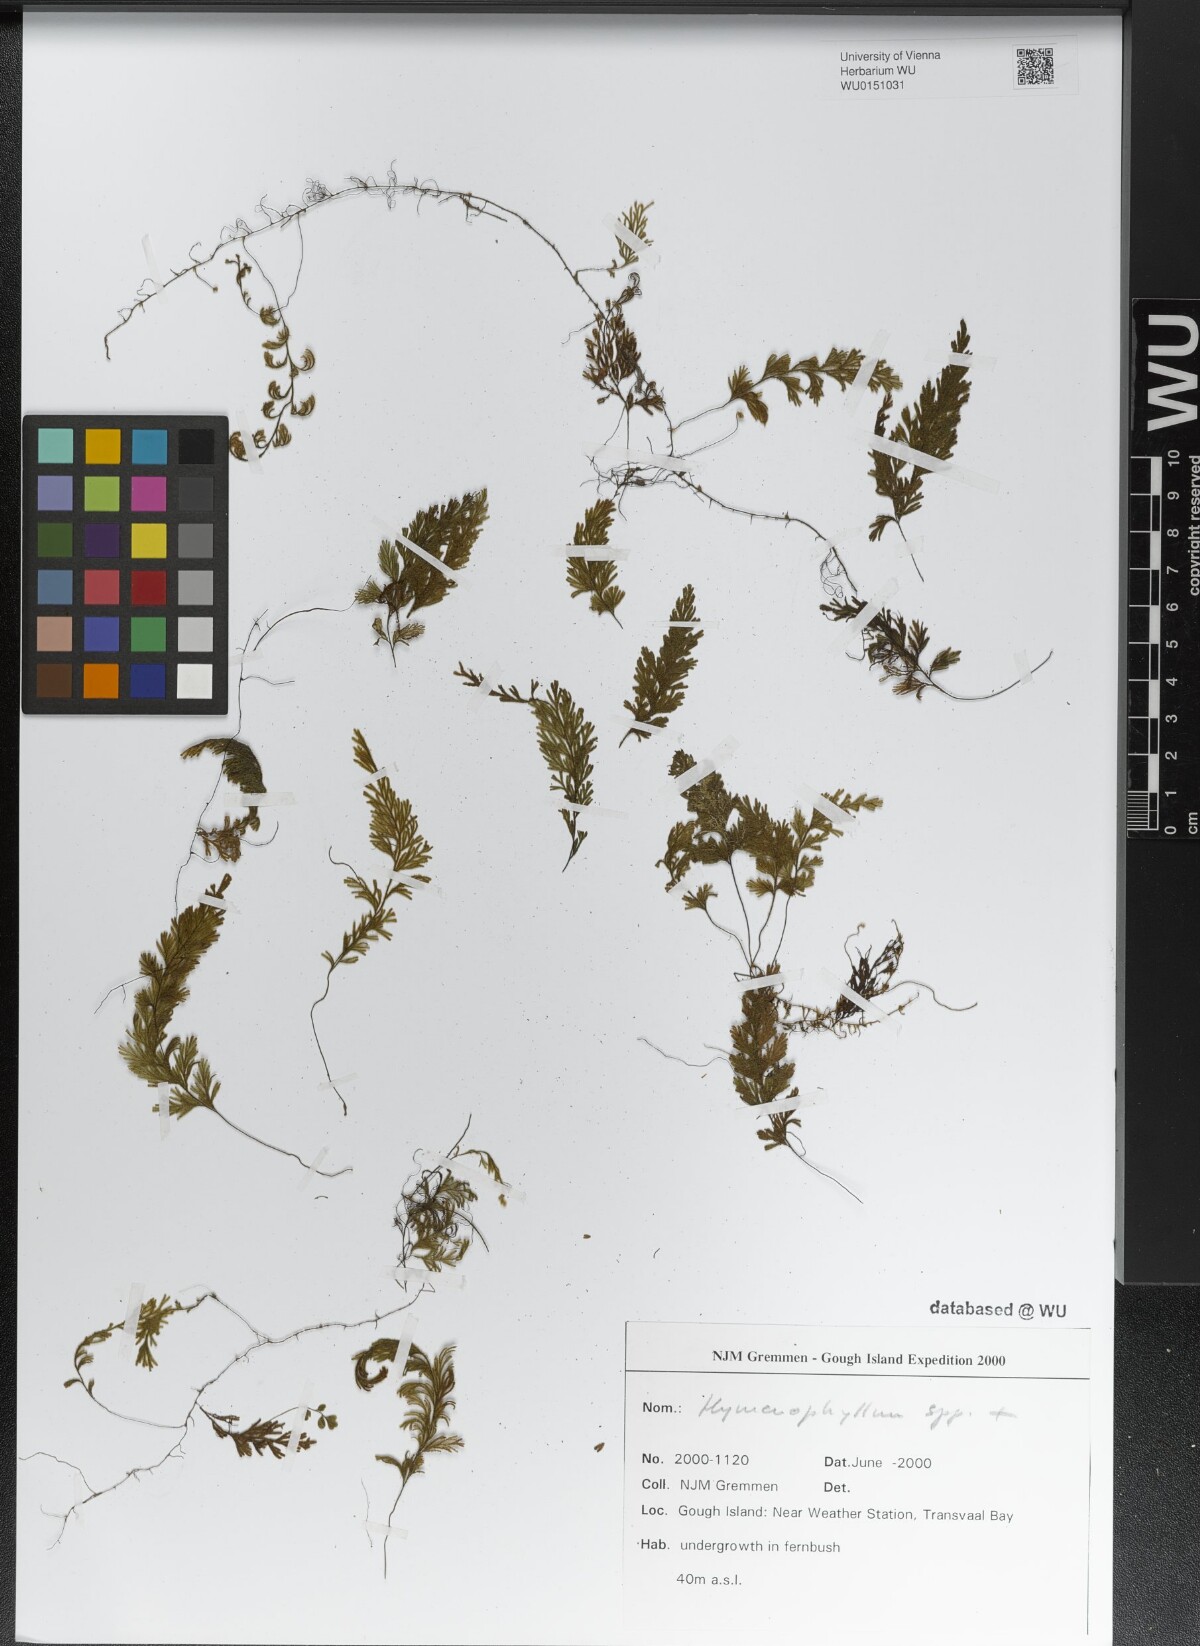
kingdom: Plantae
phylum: Tracheophyta
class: Polypodiopsida
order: Hymenophyllales
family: Hymenophyllaceae
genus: Hymenophyllum
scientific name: Hymenophyllum
